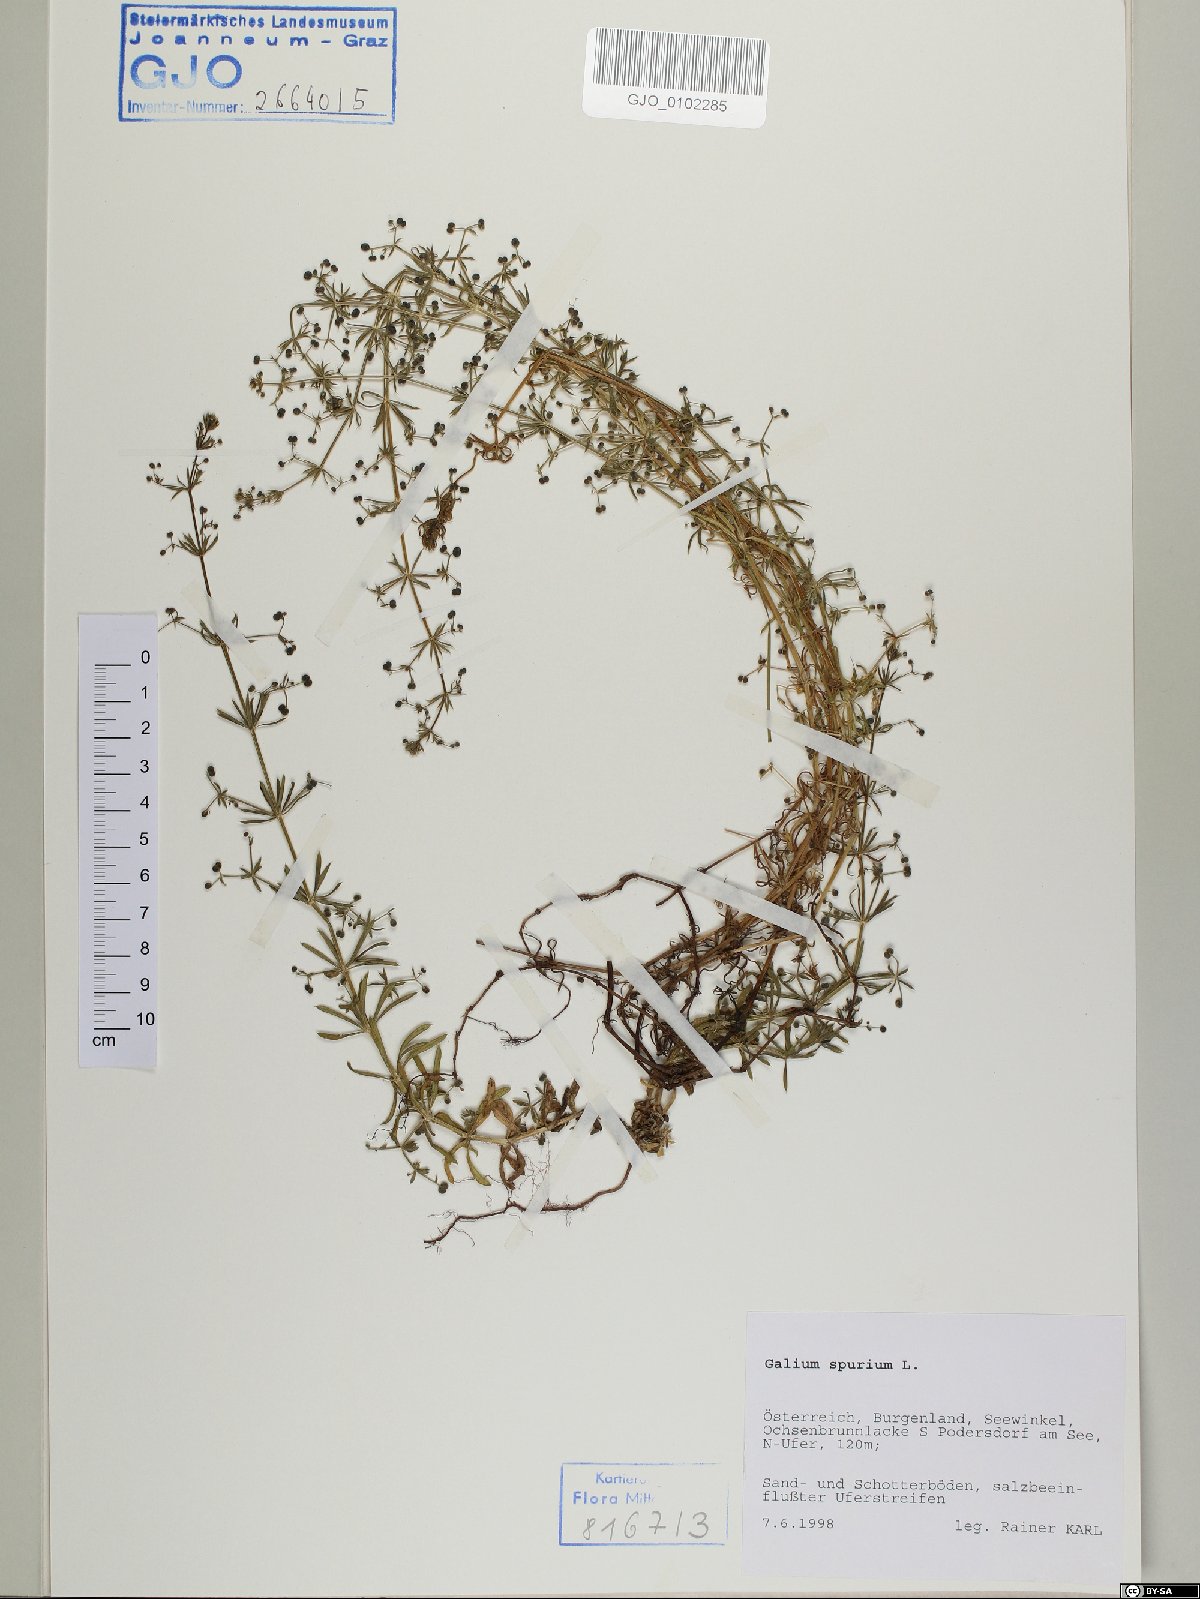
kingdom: Plantae
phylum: Tracheophyta
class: Magnoliopsida
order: Gentianales
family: Rubiaceae
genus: Galium
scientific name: Galium spurium
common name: False cleavers
